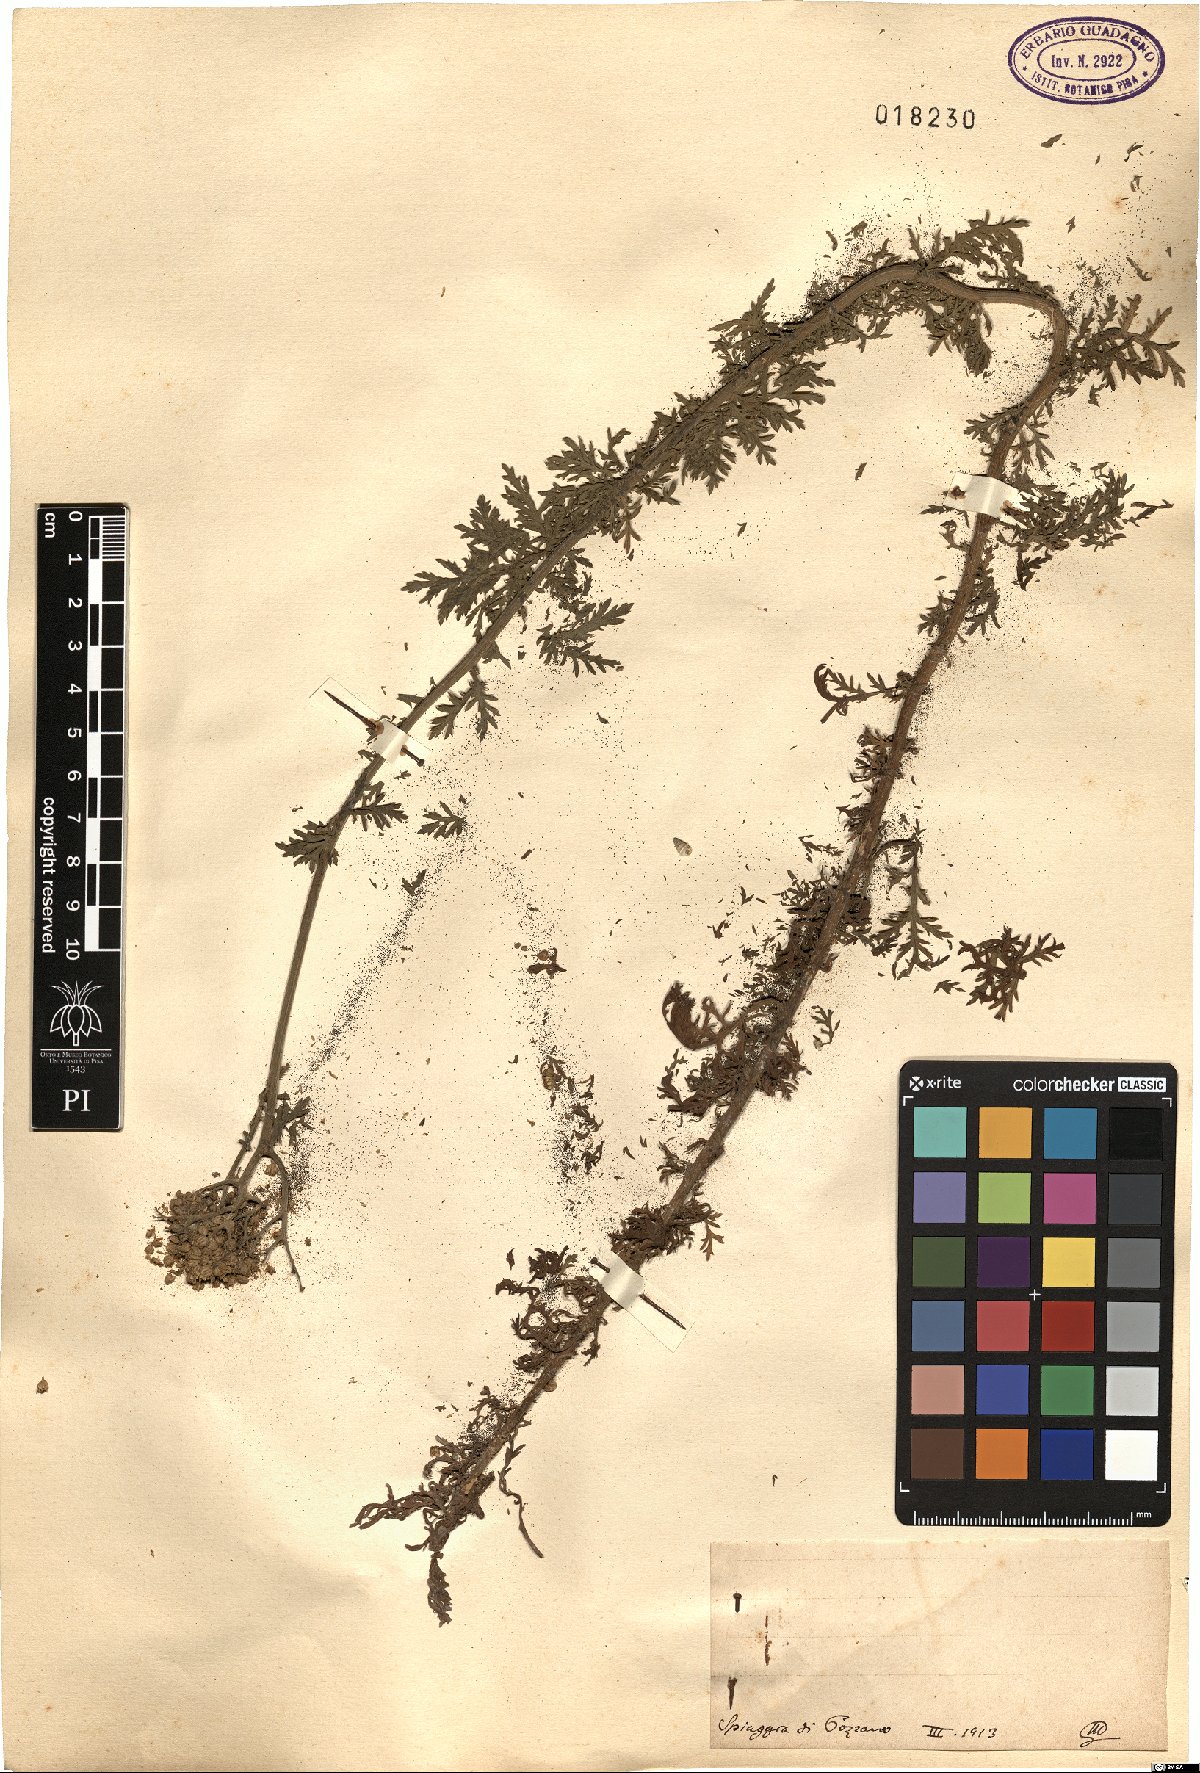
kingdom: Plantae
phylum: Tracheophyta
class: Magnoliopsida
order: Asterales
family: Asteraceae
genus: Achillea
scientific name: Achillea
